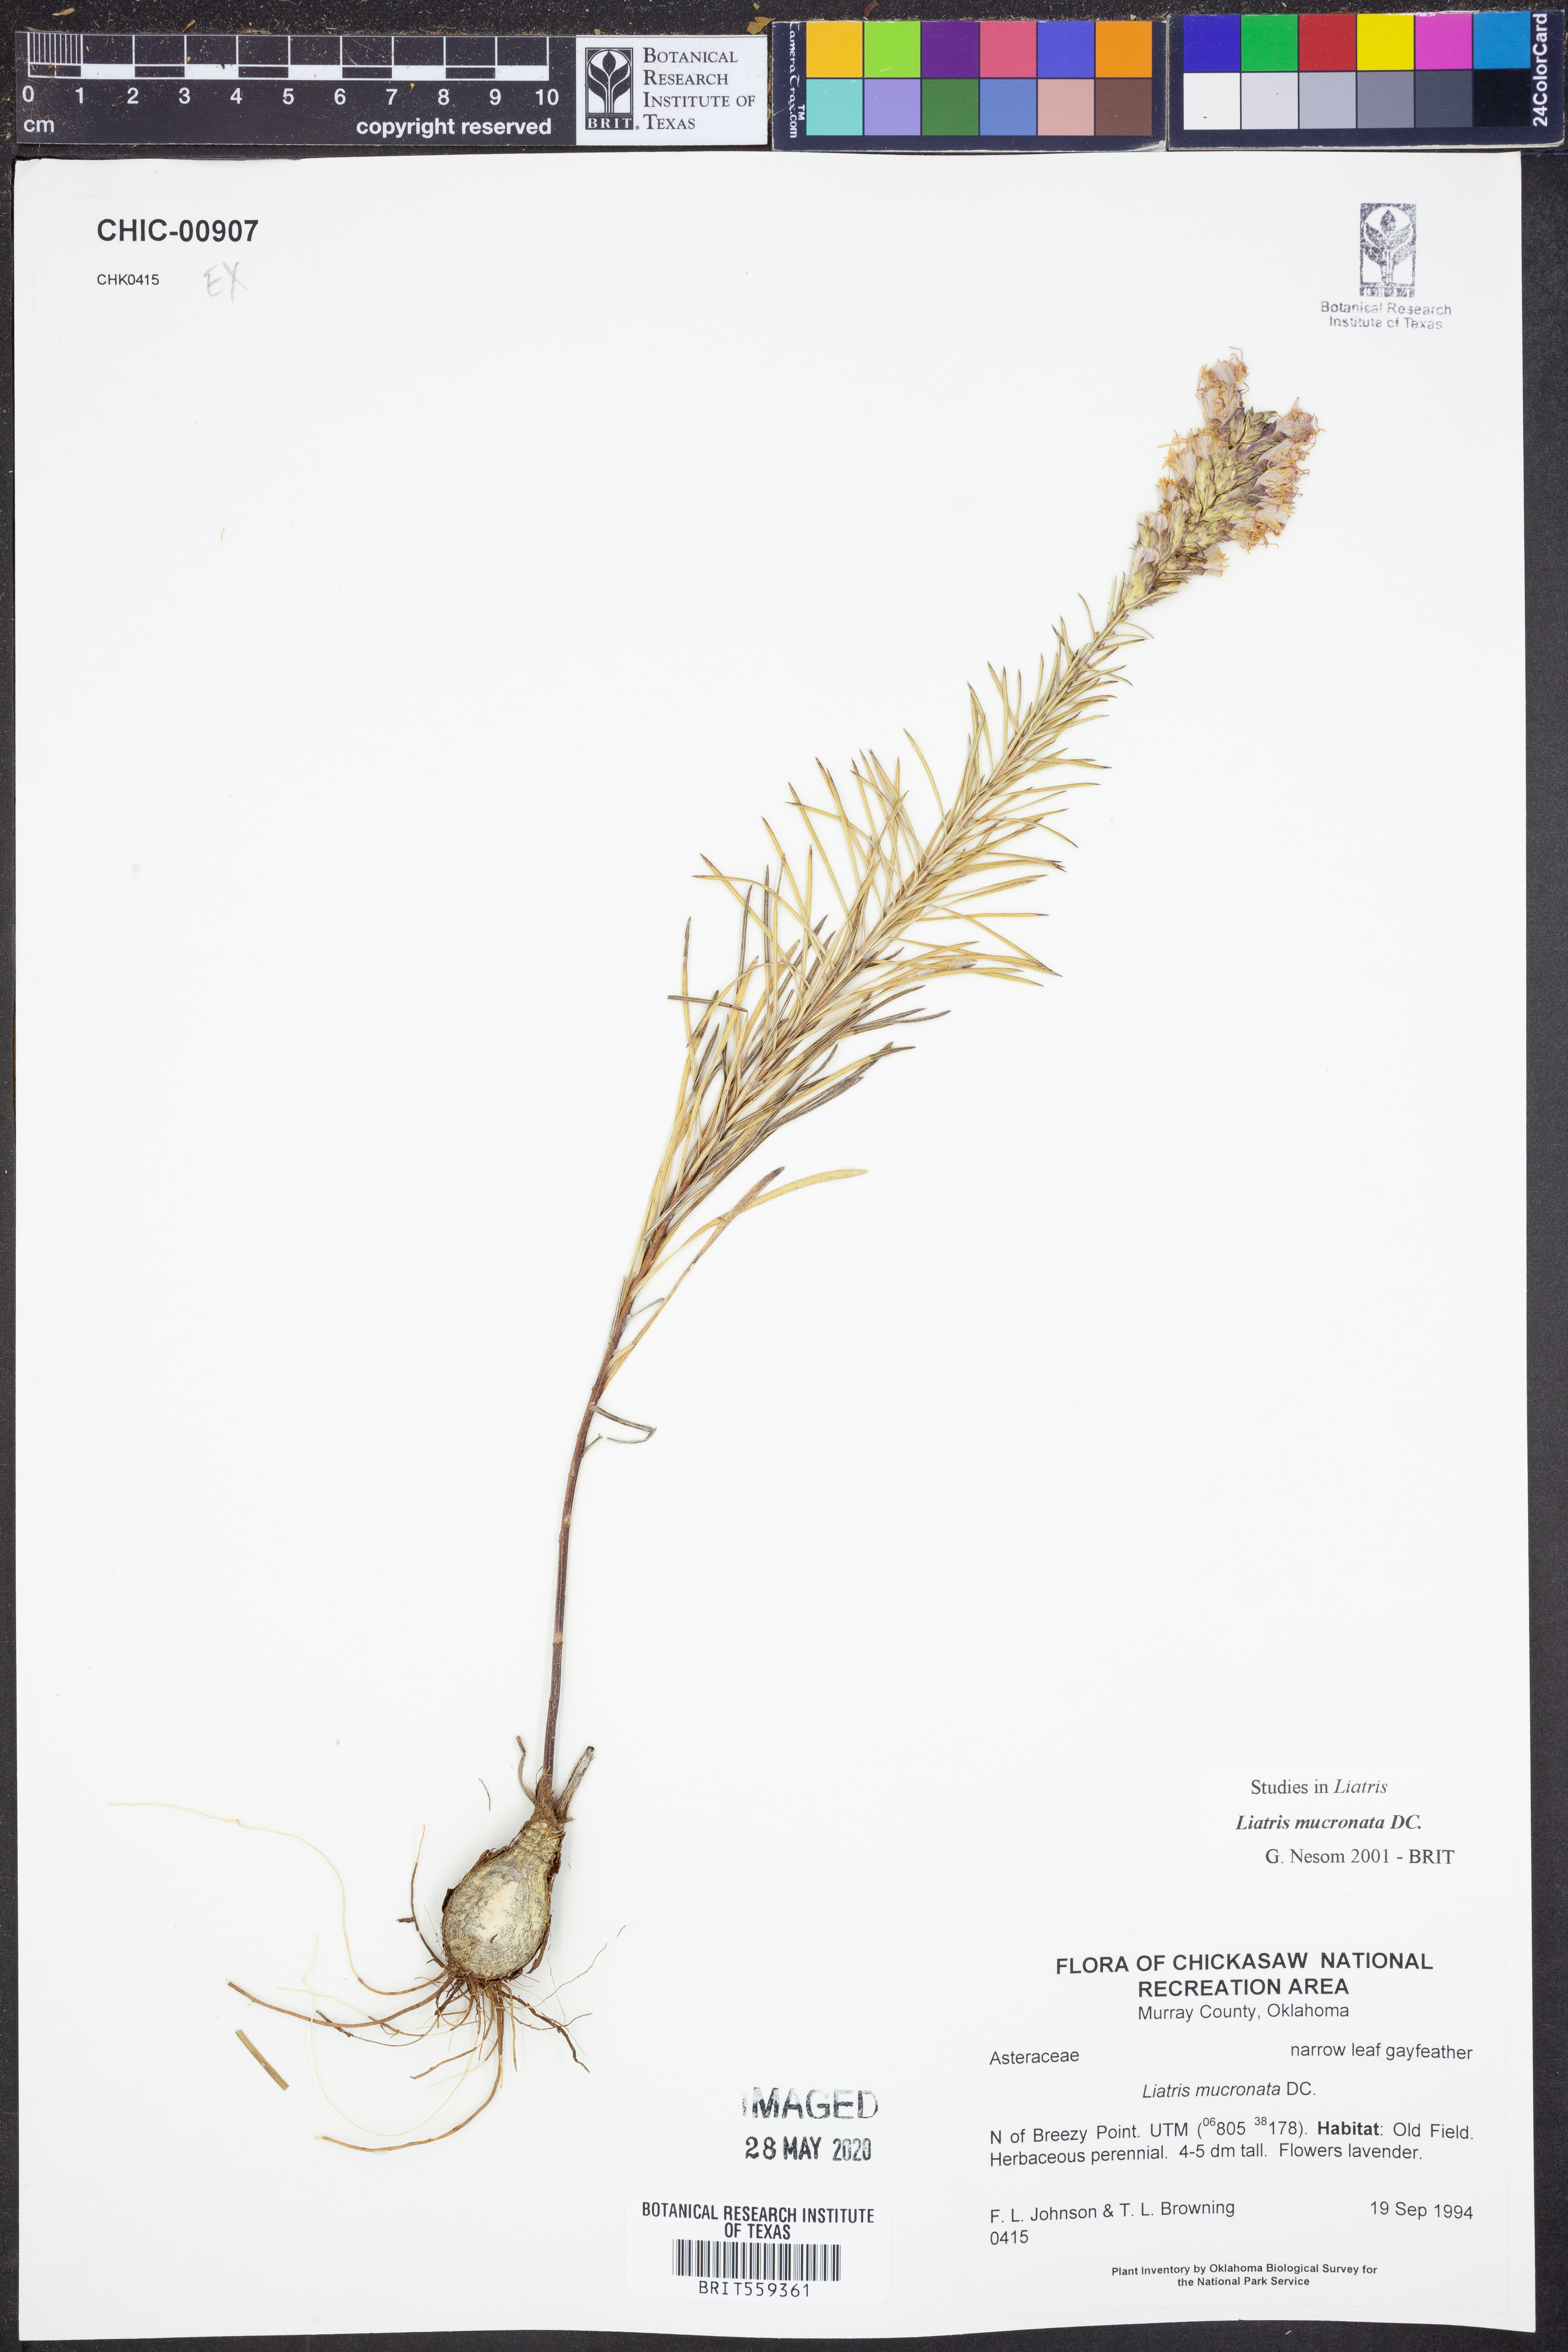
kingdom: Plantae
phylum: Tracheophyta
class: Magnoliopsida
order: Asterales
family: Asteraceae
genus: Liatris
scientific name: Liatris mucronata
